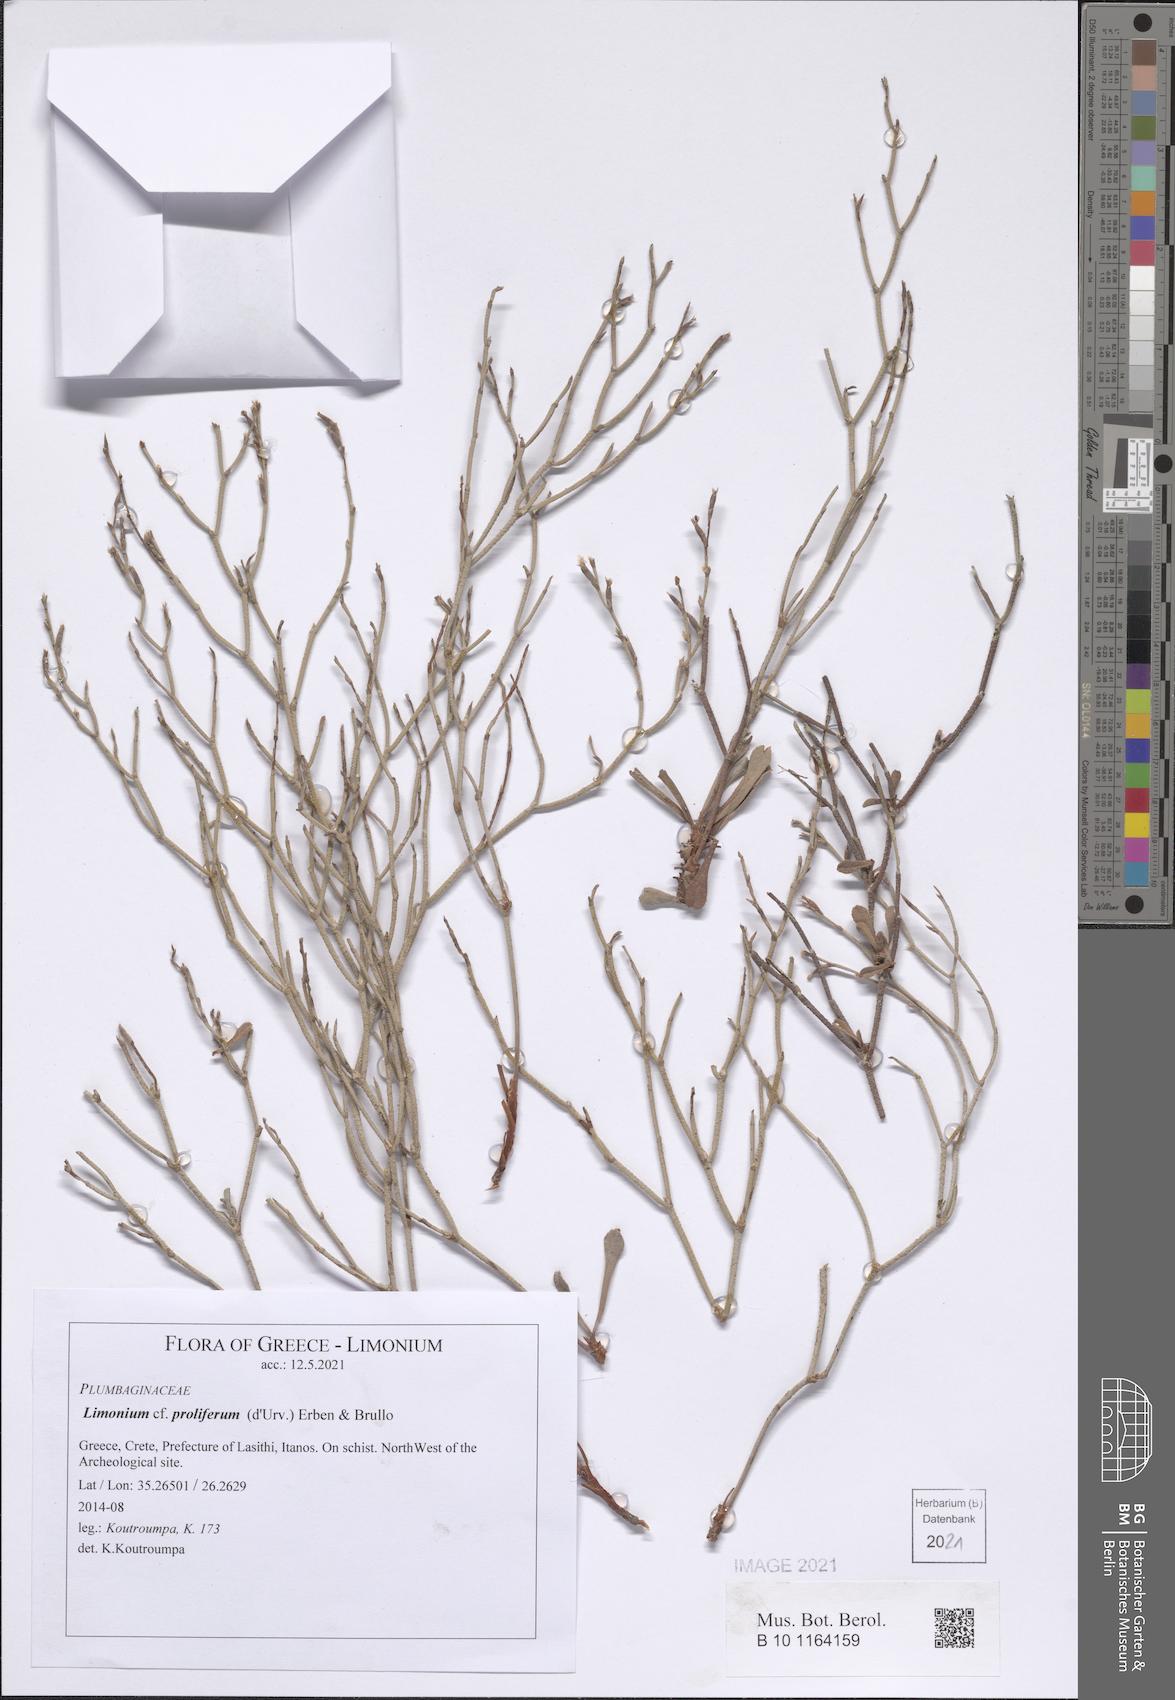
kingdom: Plantae
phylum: Tracheophyta
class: Magnoliopsida
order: Caryophyllales
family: Plumbaginaceae
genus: Limonium
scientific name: Limonium proliferum
